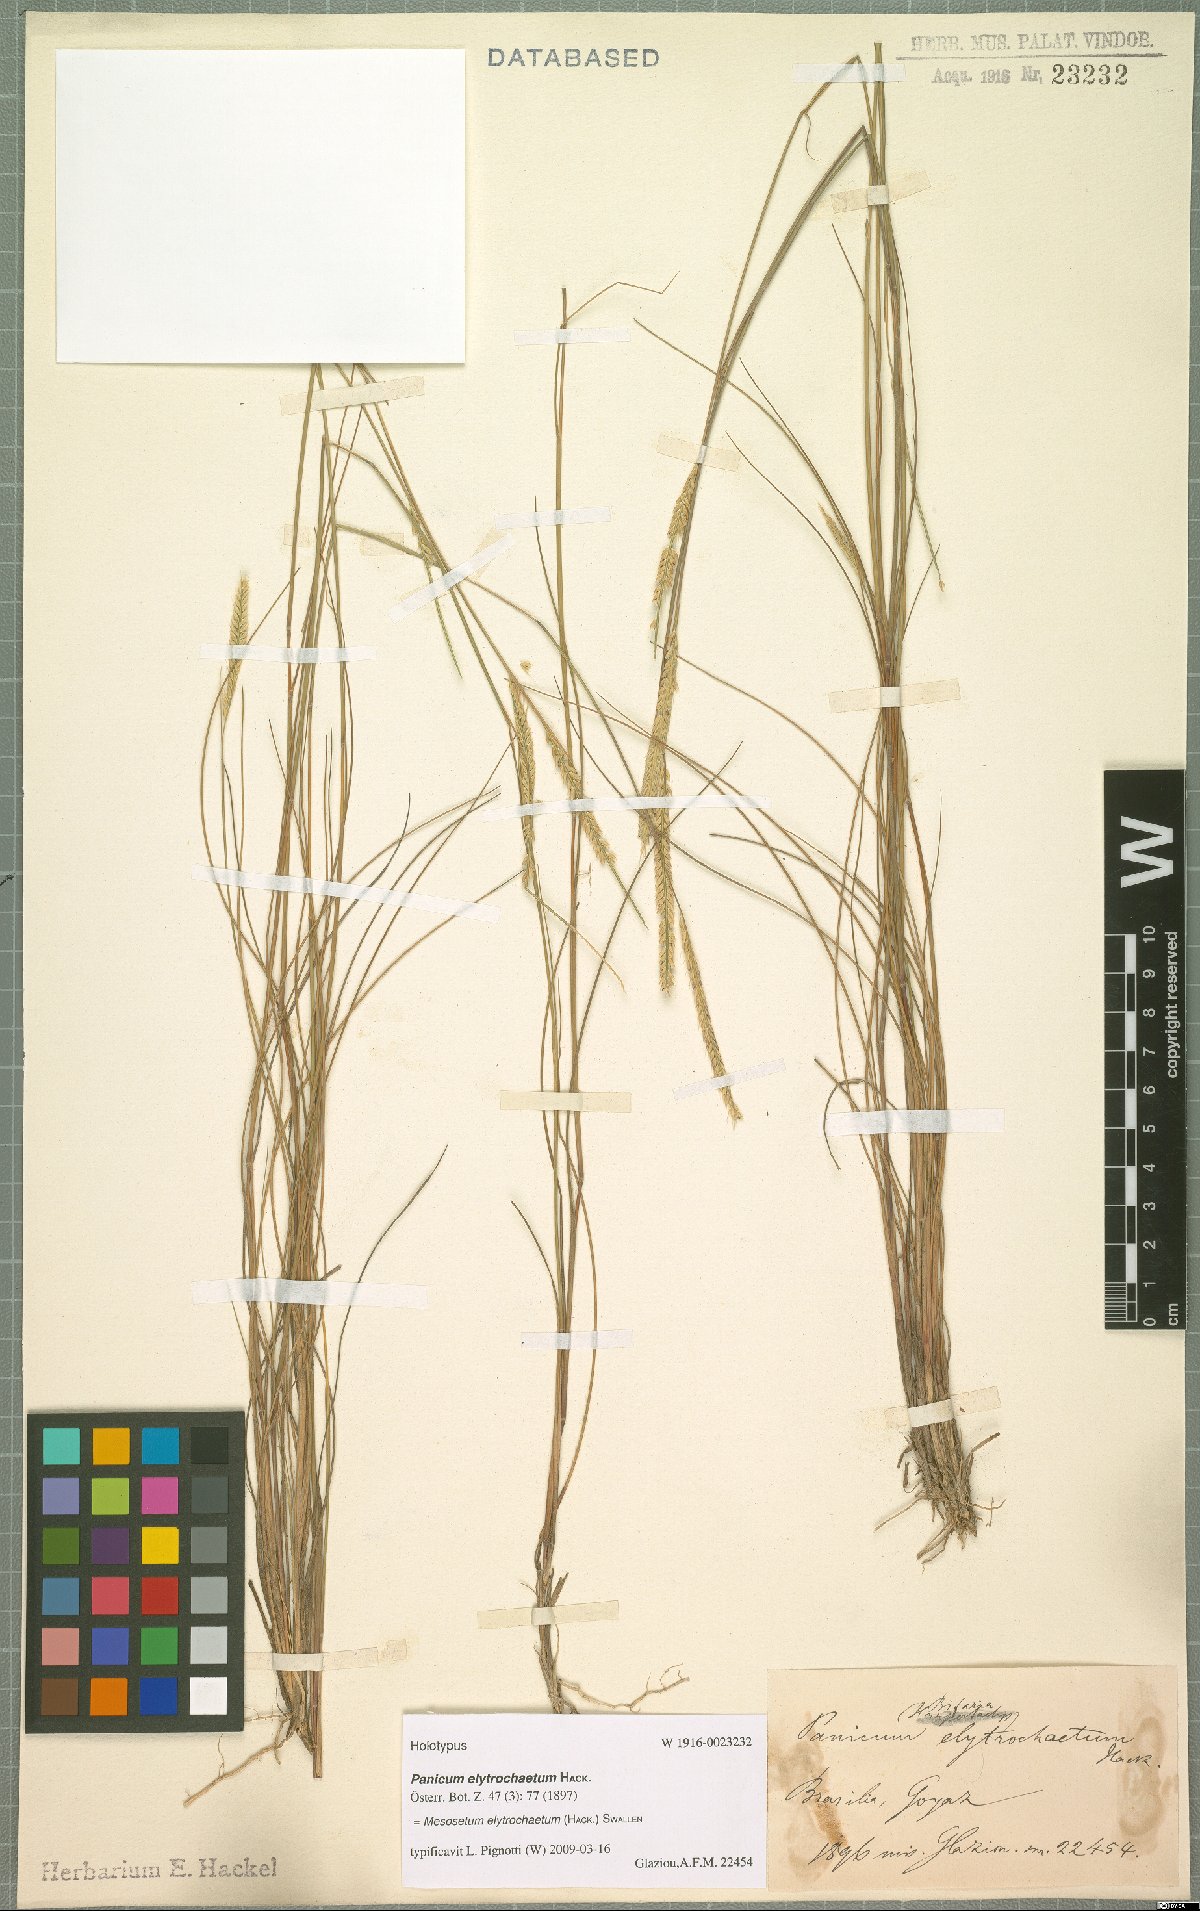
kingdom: Plantae
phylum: Tracheophyta
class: Liliopsida
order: Poales
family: Poaceae
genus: Mesosetum
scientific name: Mesosetum elytrochaetum
